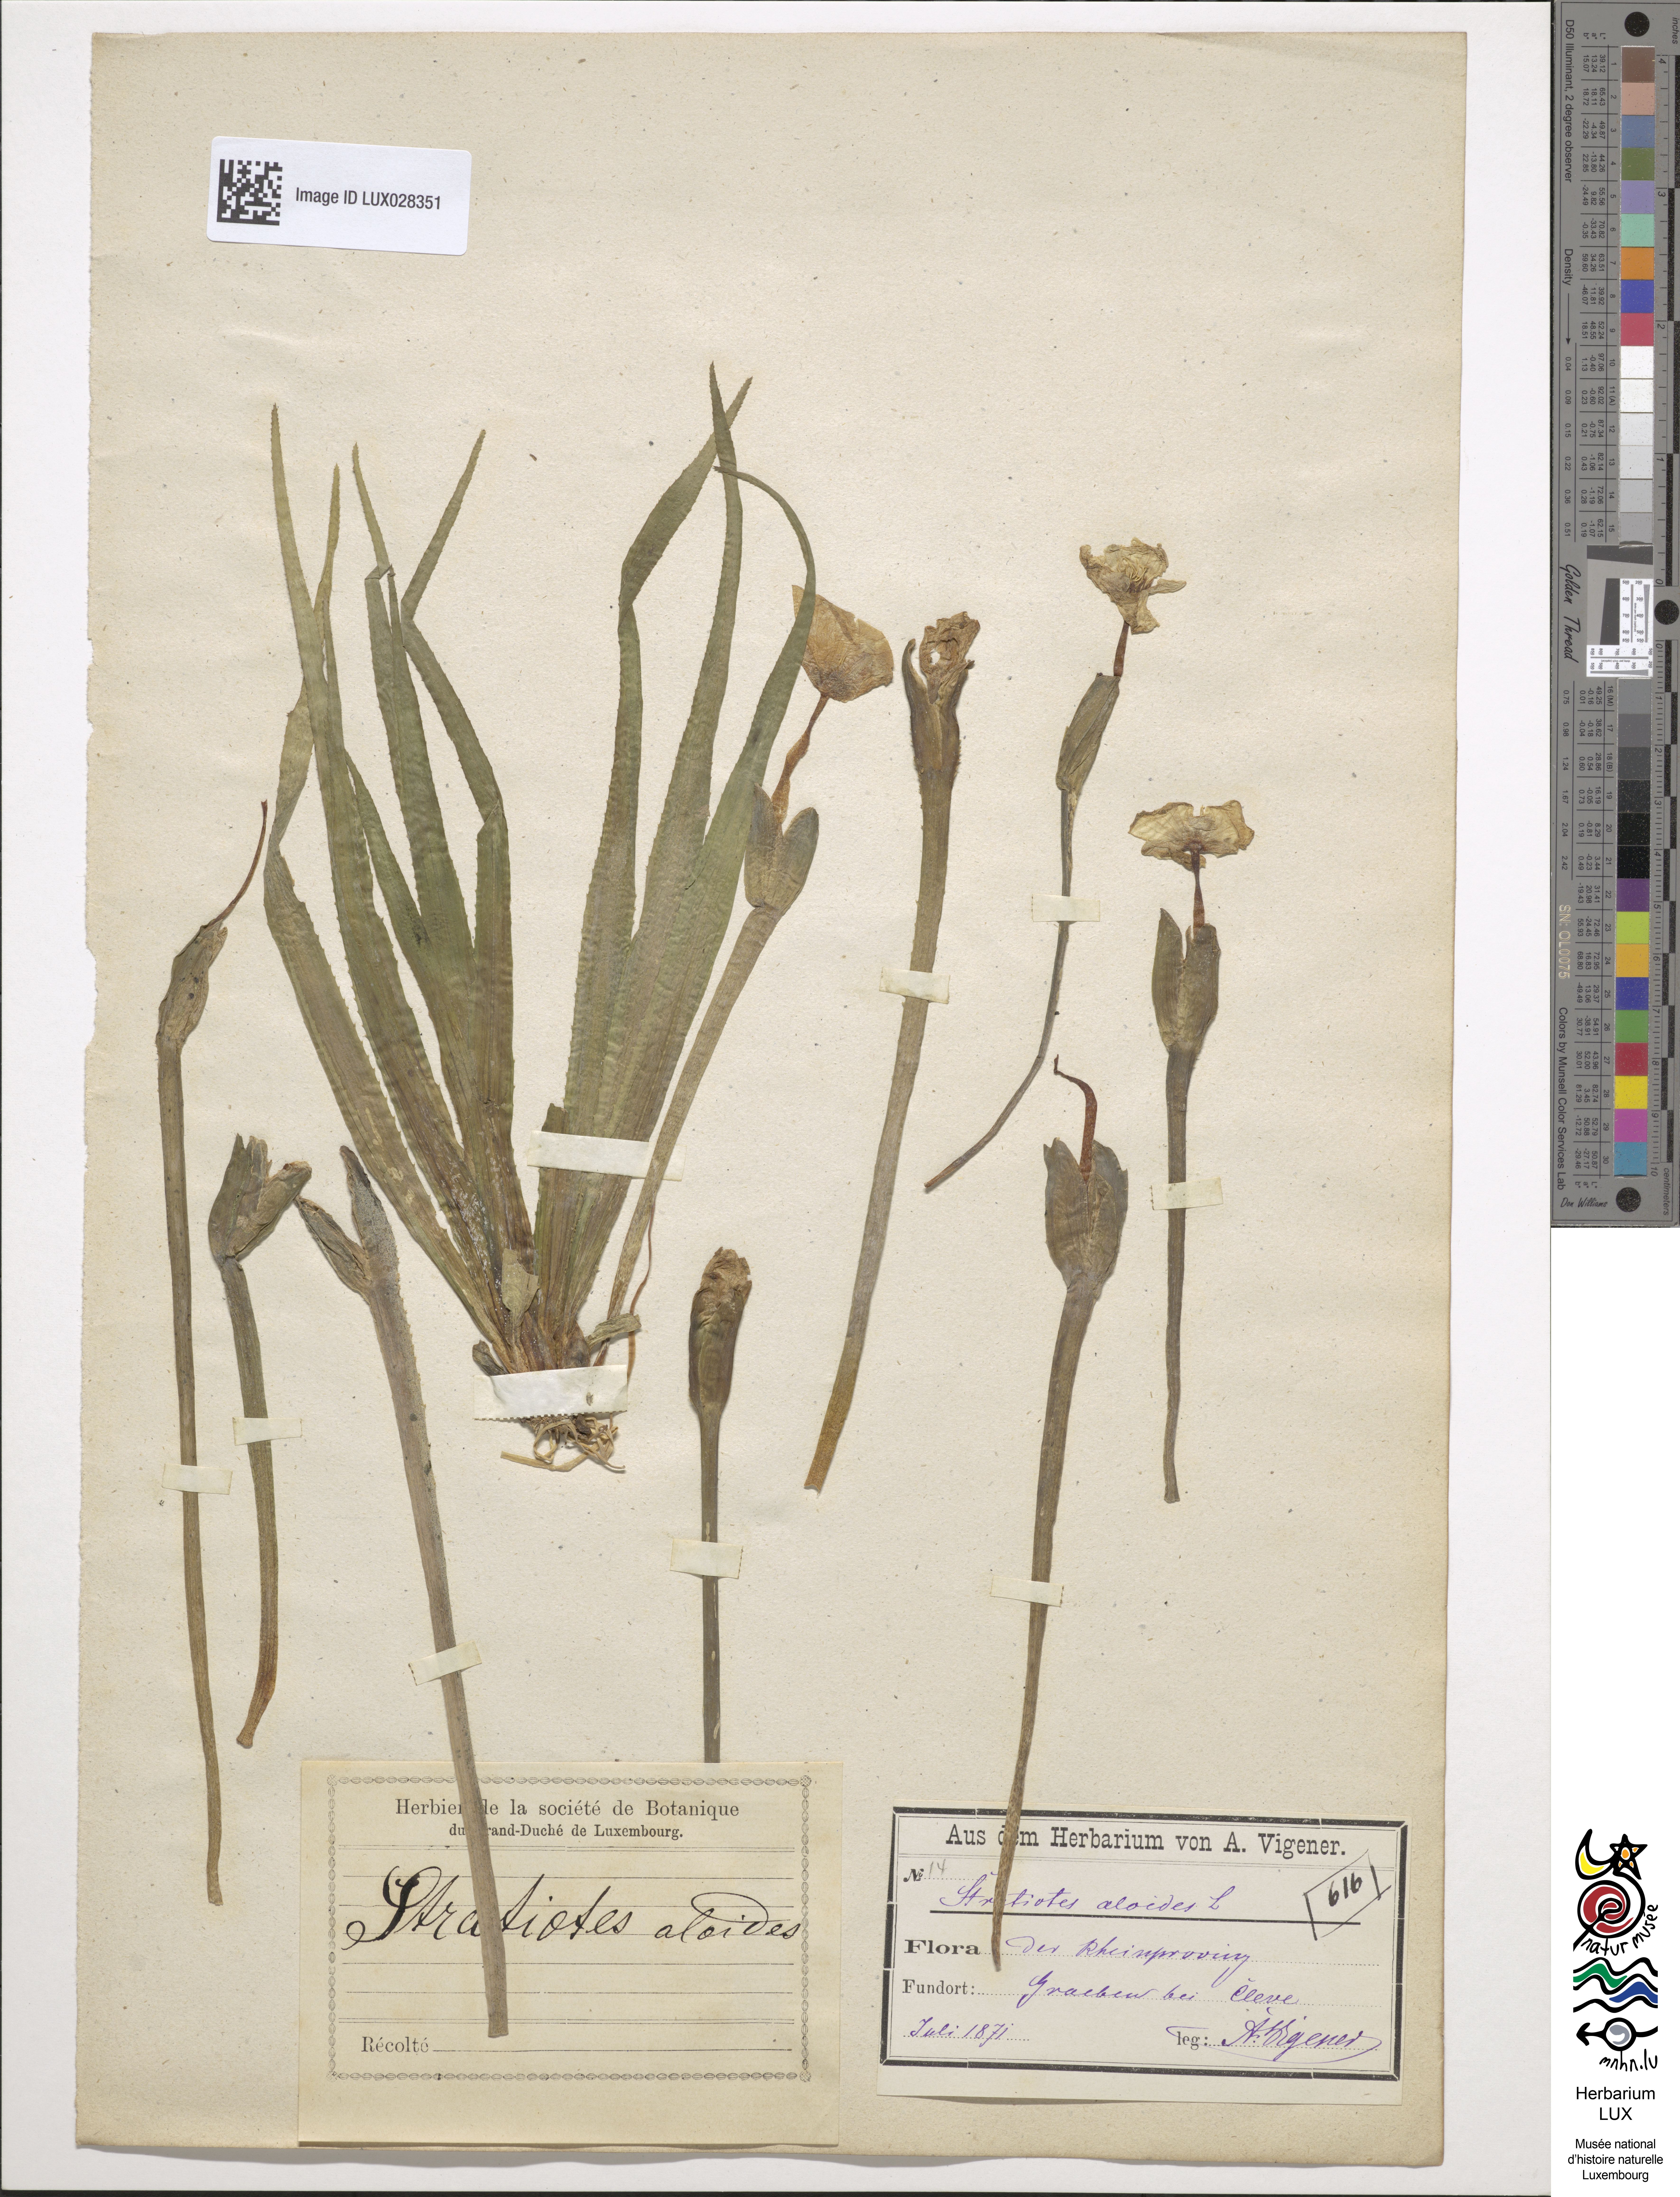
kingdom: Plantae
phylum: Tracheophyta
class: Liliopsida
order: Alismatales
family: Hydrocharitaceae
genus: Stratiotes
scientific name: Stratiotes aloides
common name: Water-soldier
